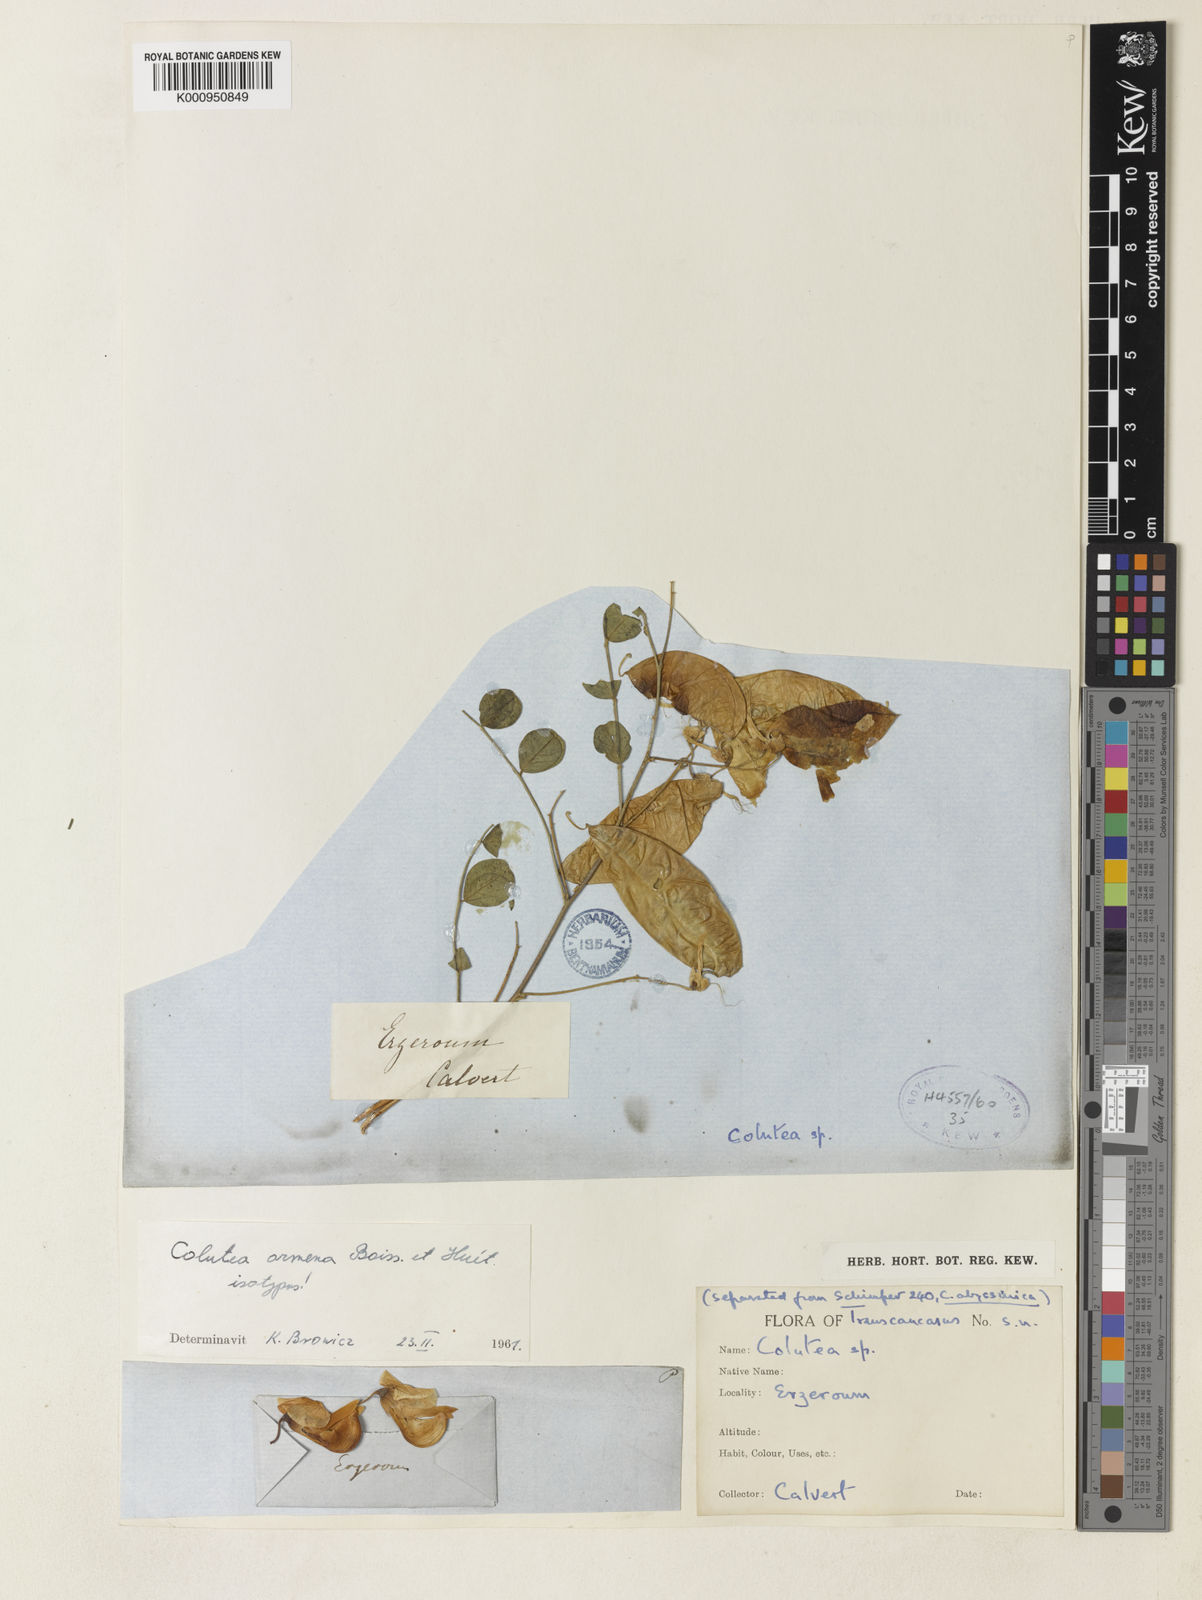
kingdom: Plantae
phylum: Tracheophyta
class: Magnoliopsida
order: Fabales
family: Fabaceae
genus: Colutea
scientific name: Colutea armena
